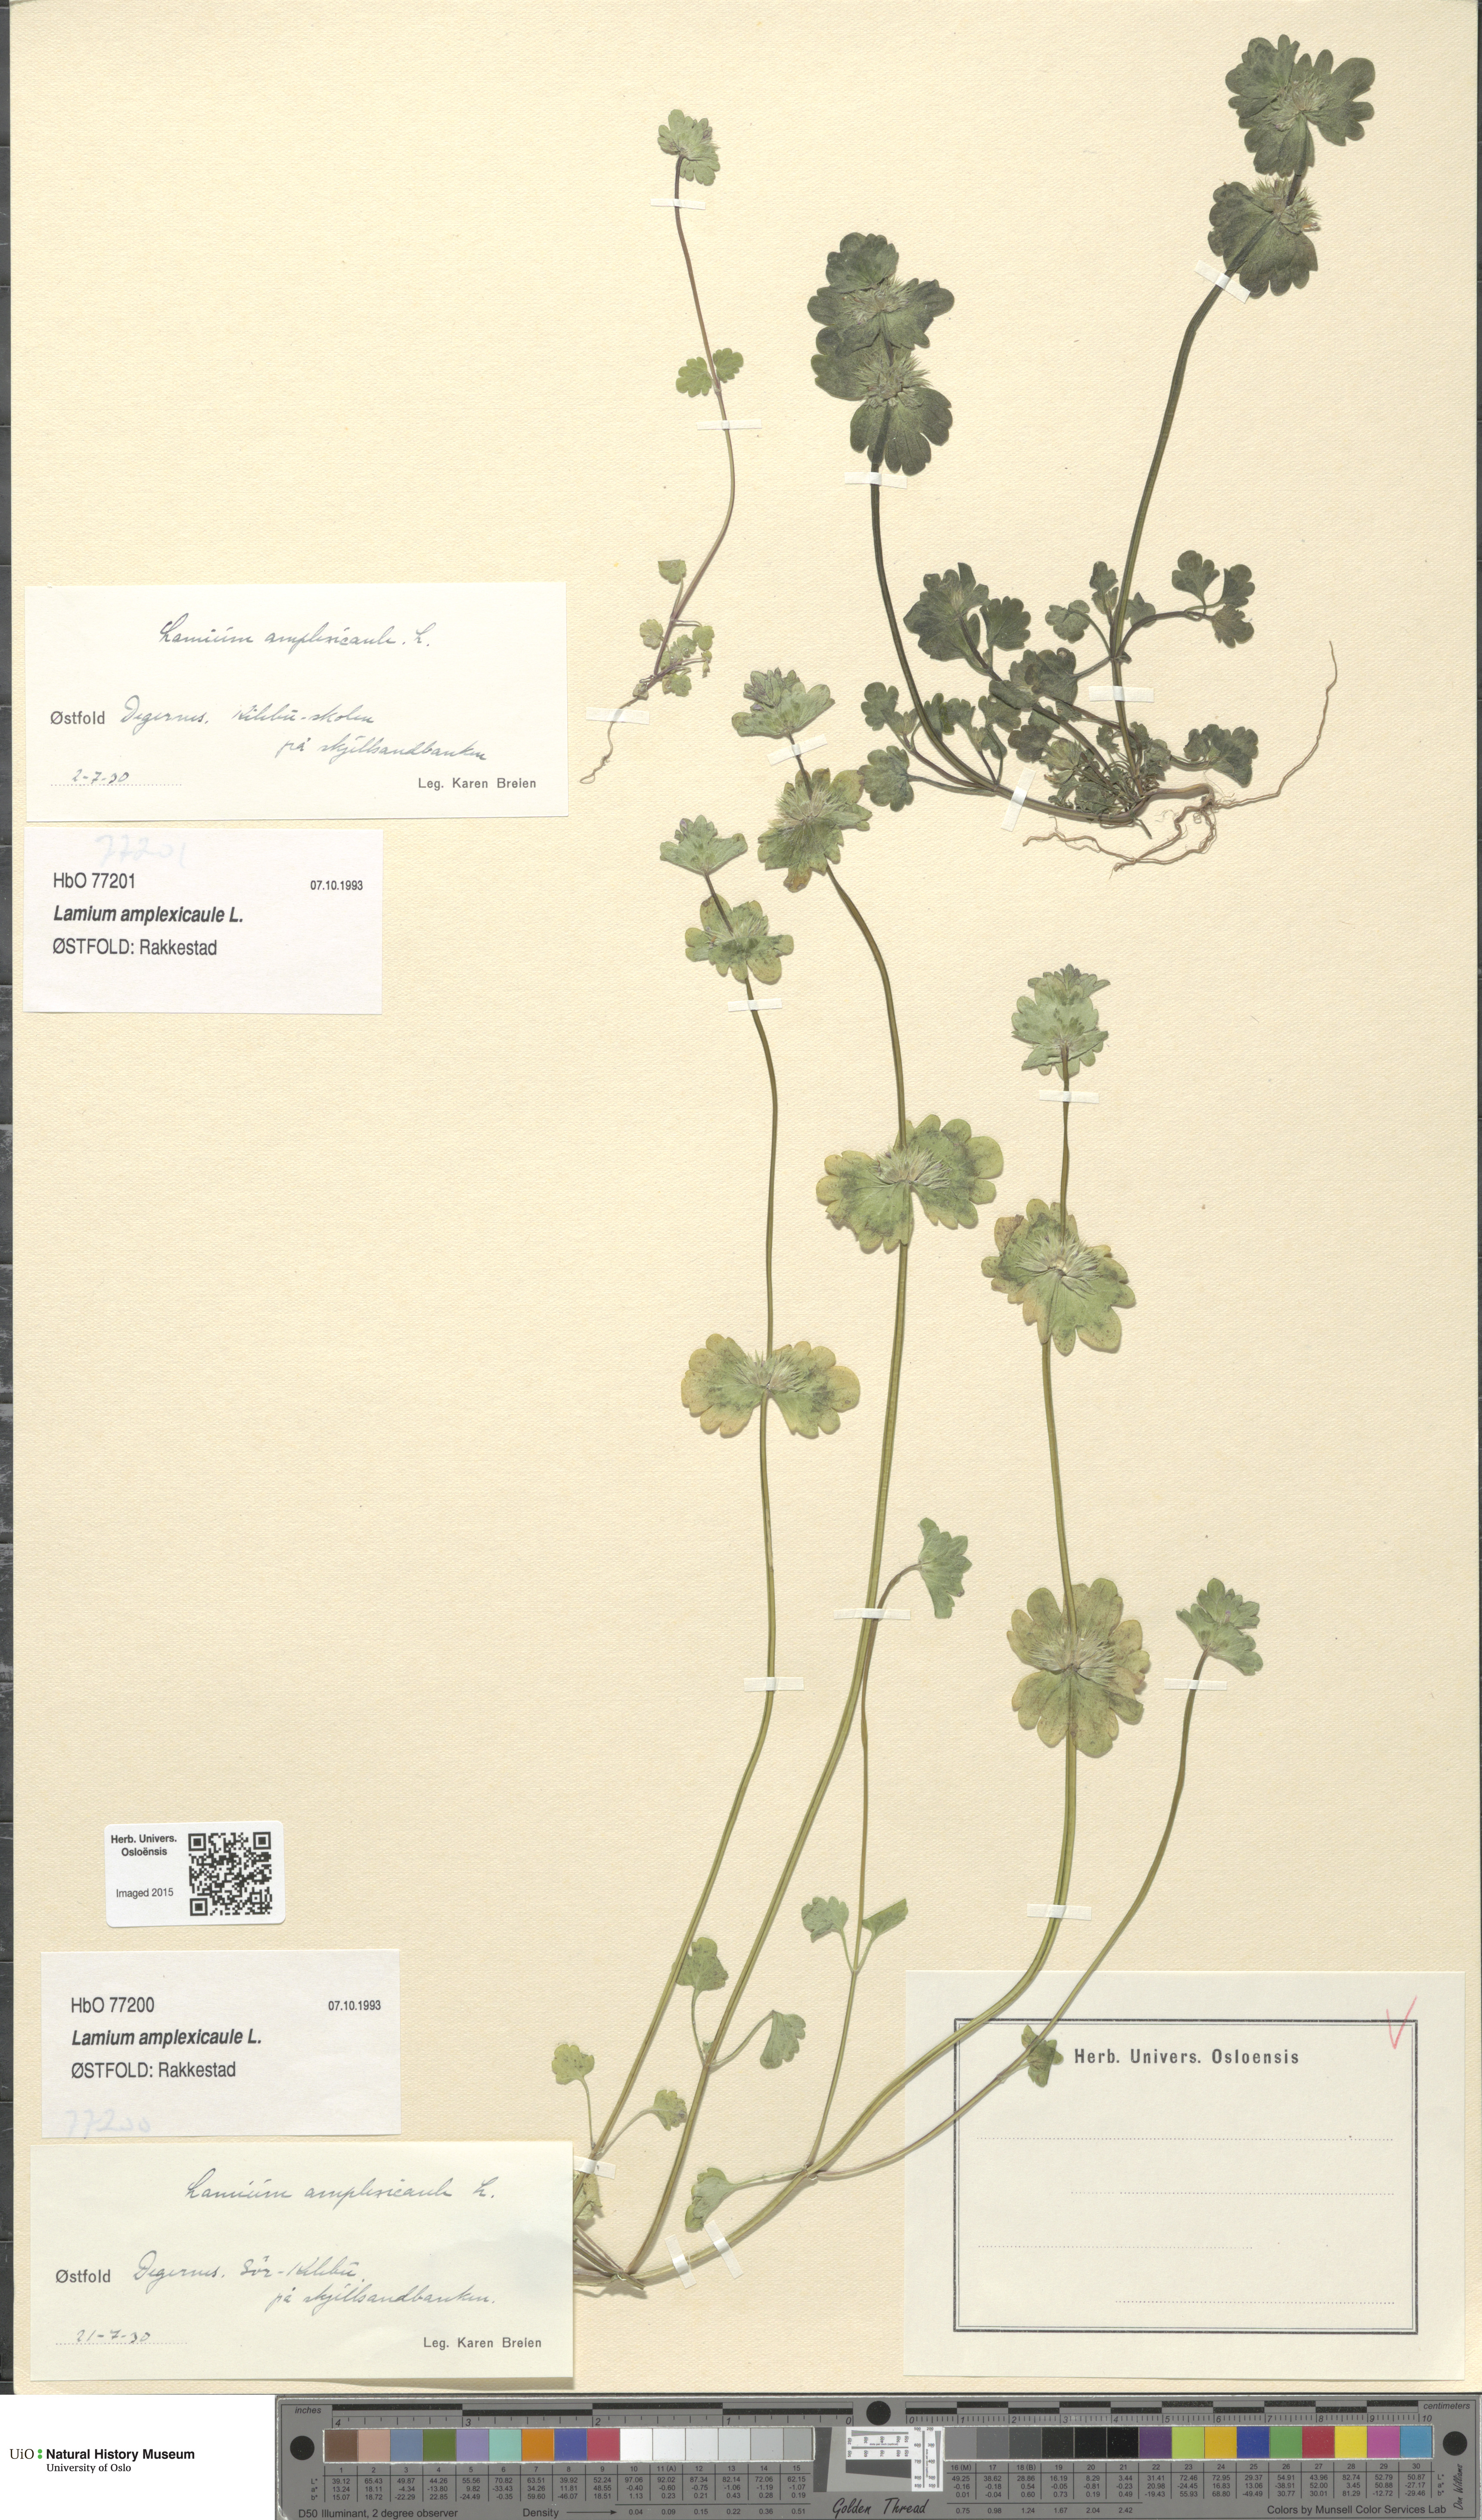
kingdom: Plantae
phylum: Tracheophyta
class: Magnoliopsida
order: Lamiales
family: Lamiaceae
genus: Lamium
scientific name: Lamium amplexicaule
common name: Henbit dead-nettle
